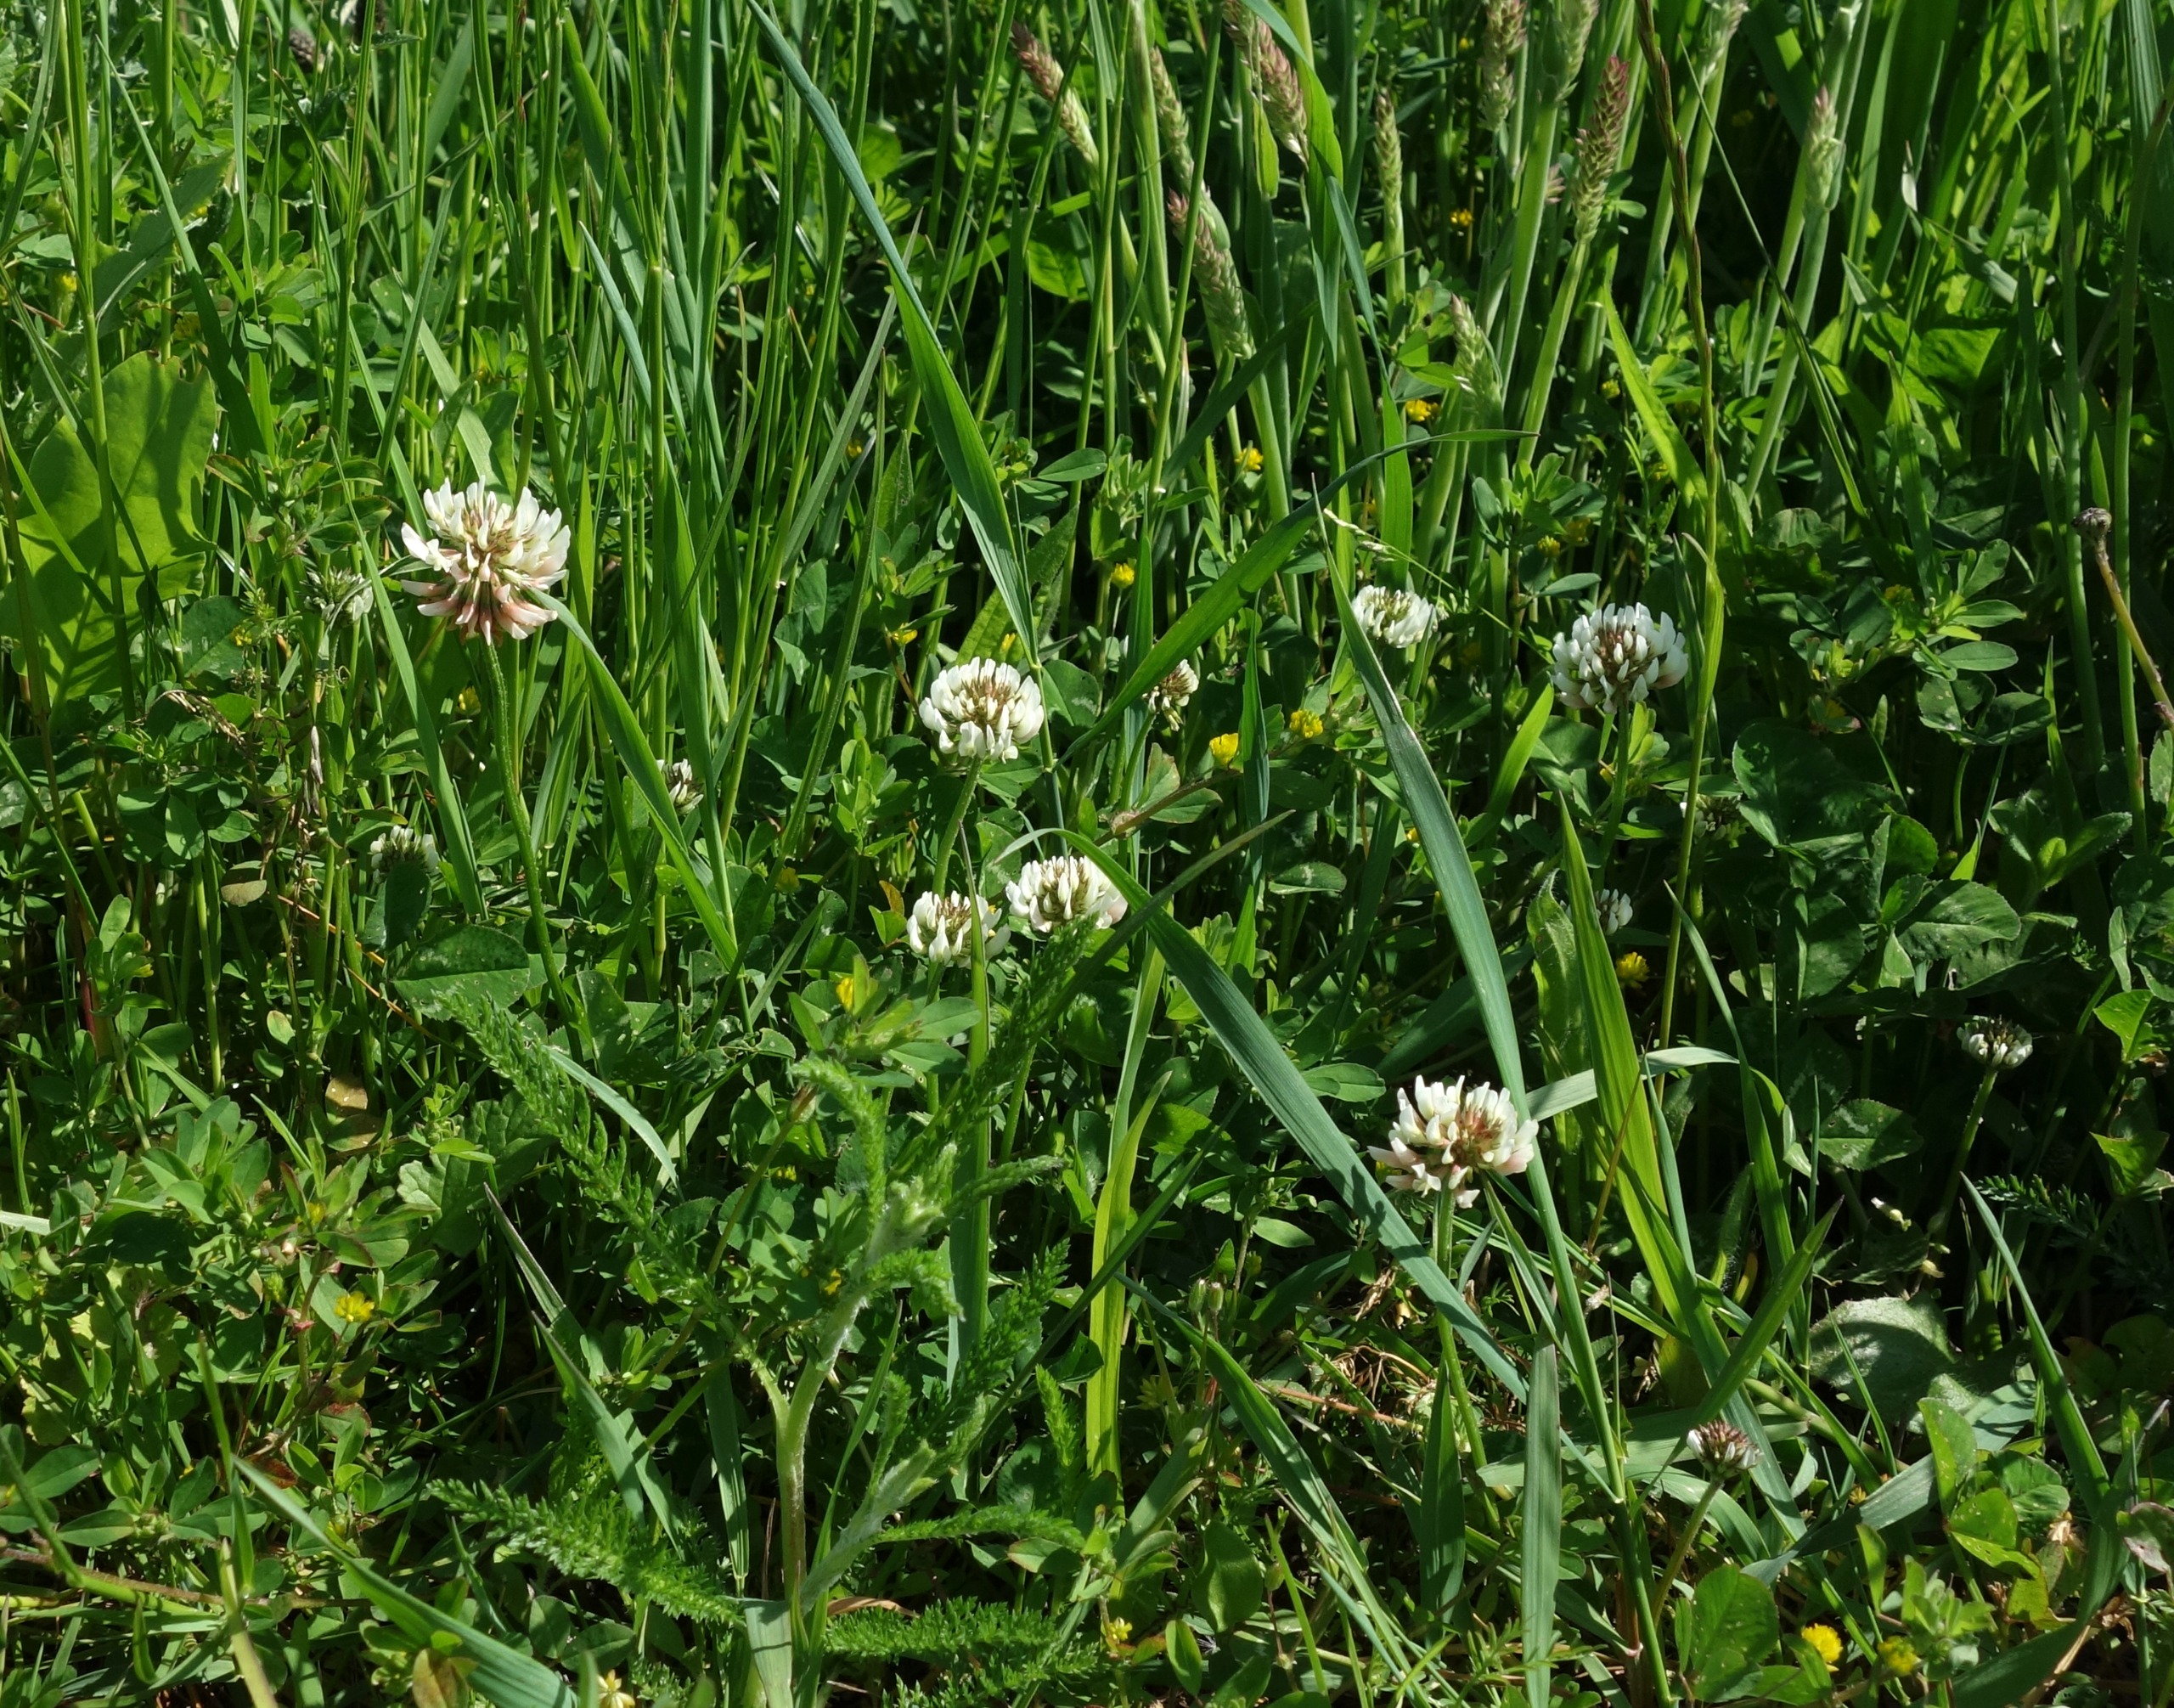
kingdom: Plantae
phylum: Tracheophyta
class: Magnoliopsida
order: Fabales
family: Fabaceae
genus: Trifolium
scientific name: Trifolium repens
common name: Hvid-kløver
